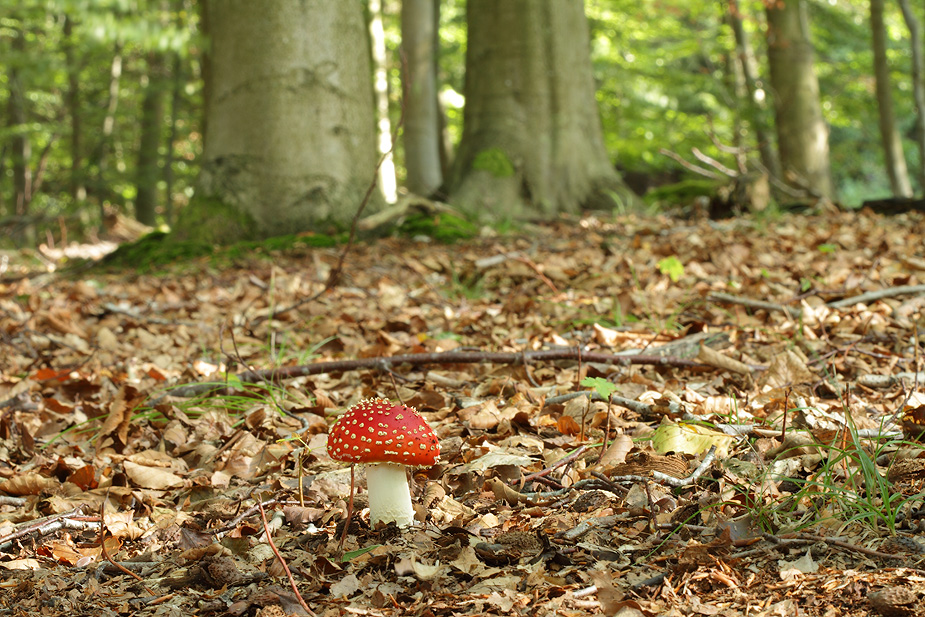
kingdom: Fungi
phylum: Basidiomycota
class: Agaricomycetes
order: Agaricales
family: Amanitaceae
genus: Amanita
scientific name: Amanita muscaria
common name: rød fluesvamp
